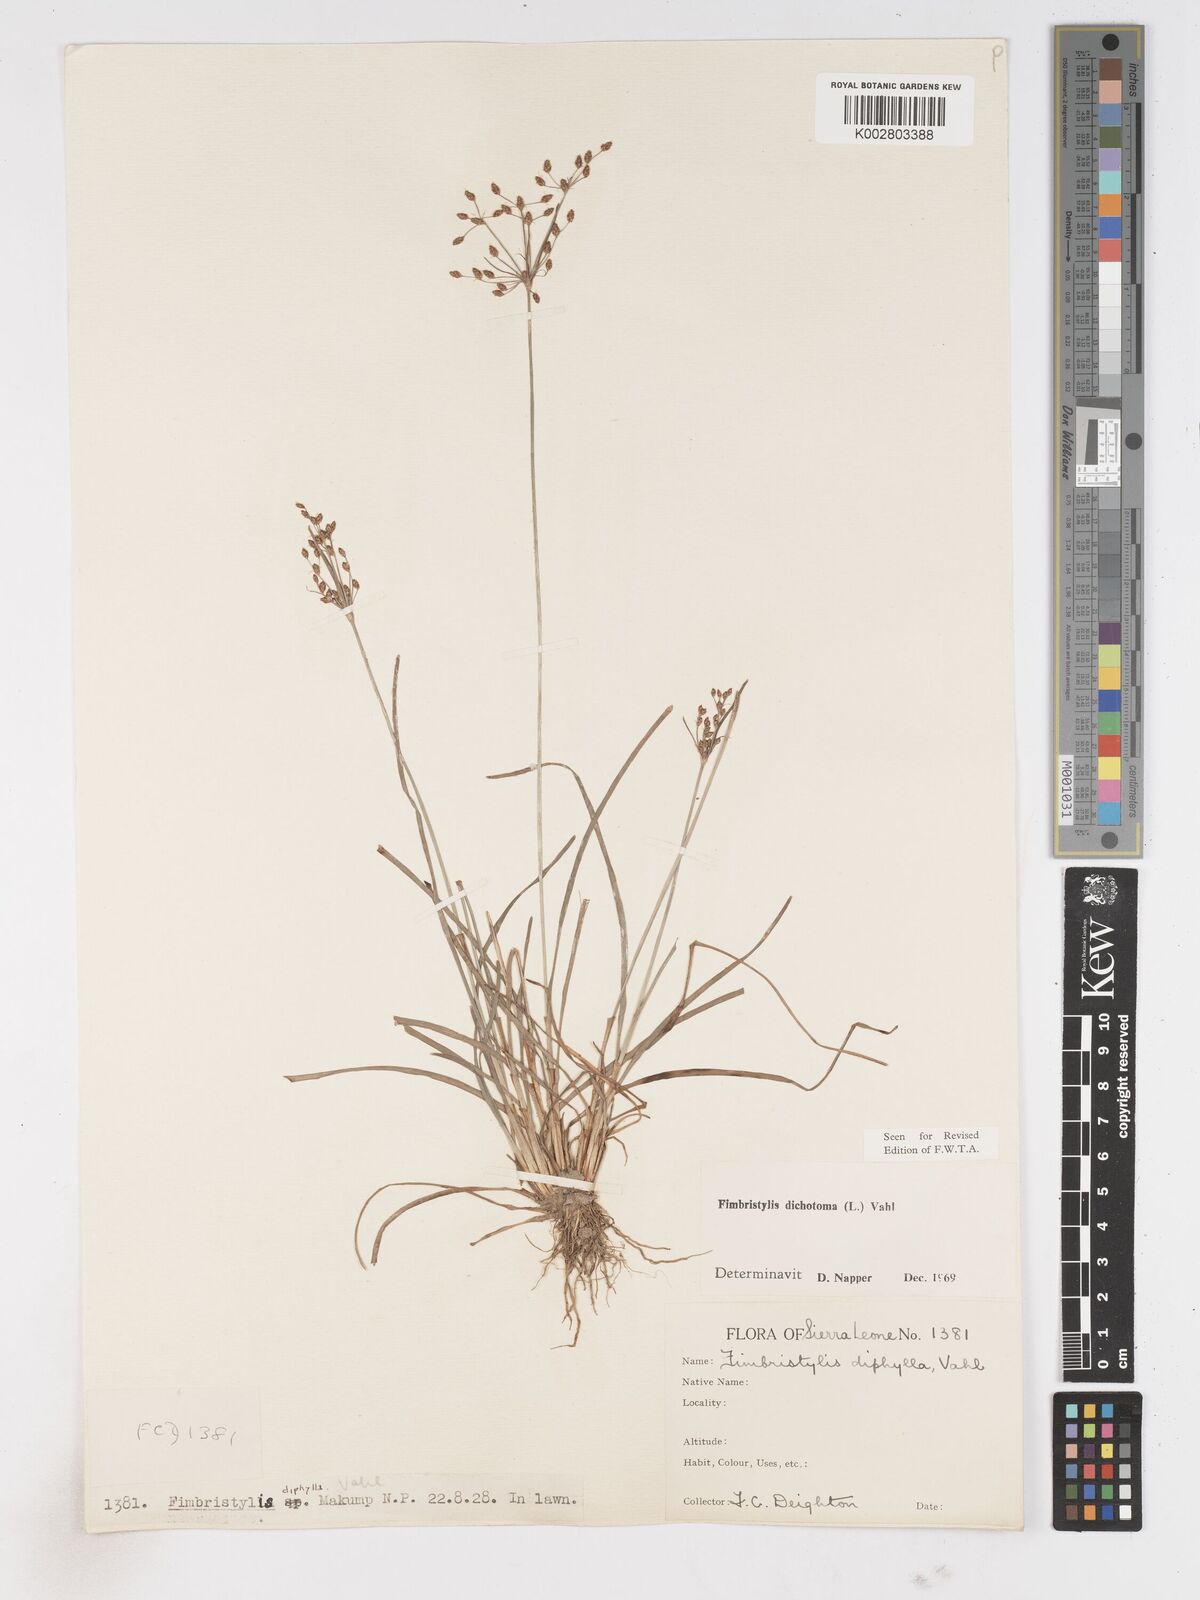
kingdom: Plantae
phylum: Tracheophyta
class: Liliopsida
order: Poales
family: Cyperaceae
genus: Fimbristylis
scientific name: Fimbristylis dichotoma
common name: Forked fimbry
